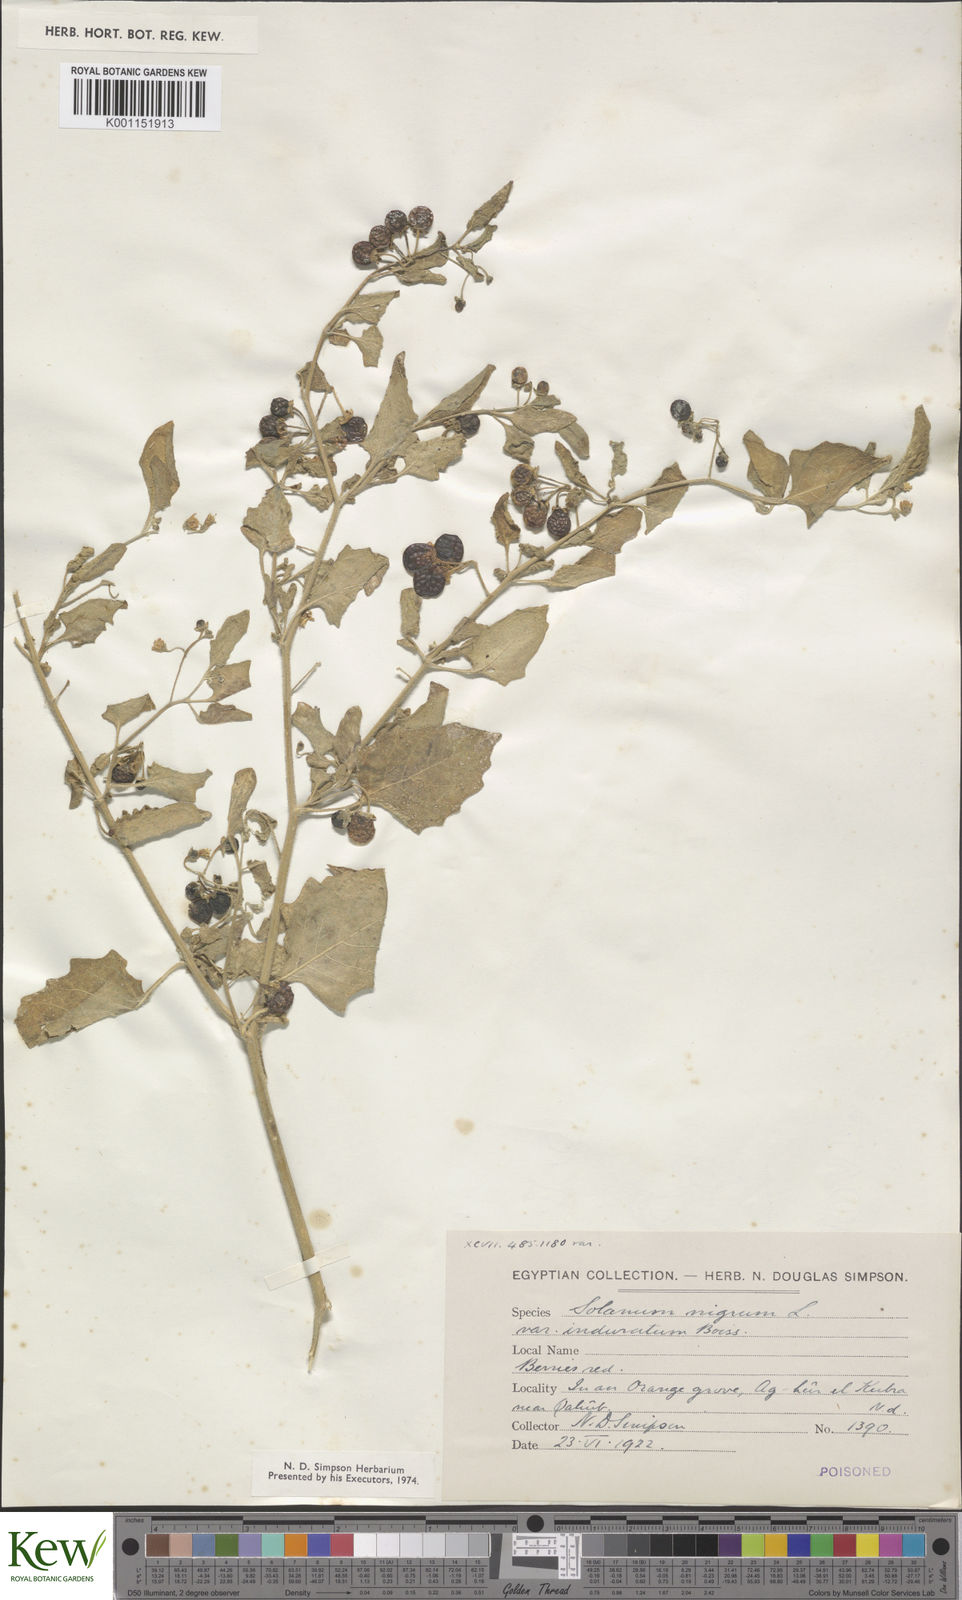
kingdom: Plantae
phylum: Tracheophyta
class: Magnoliopsida
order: Solanales
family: Solanaceae
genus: Solanum
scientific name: Solanum villosum
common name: Red nightshade
